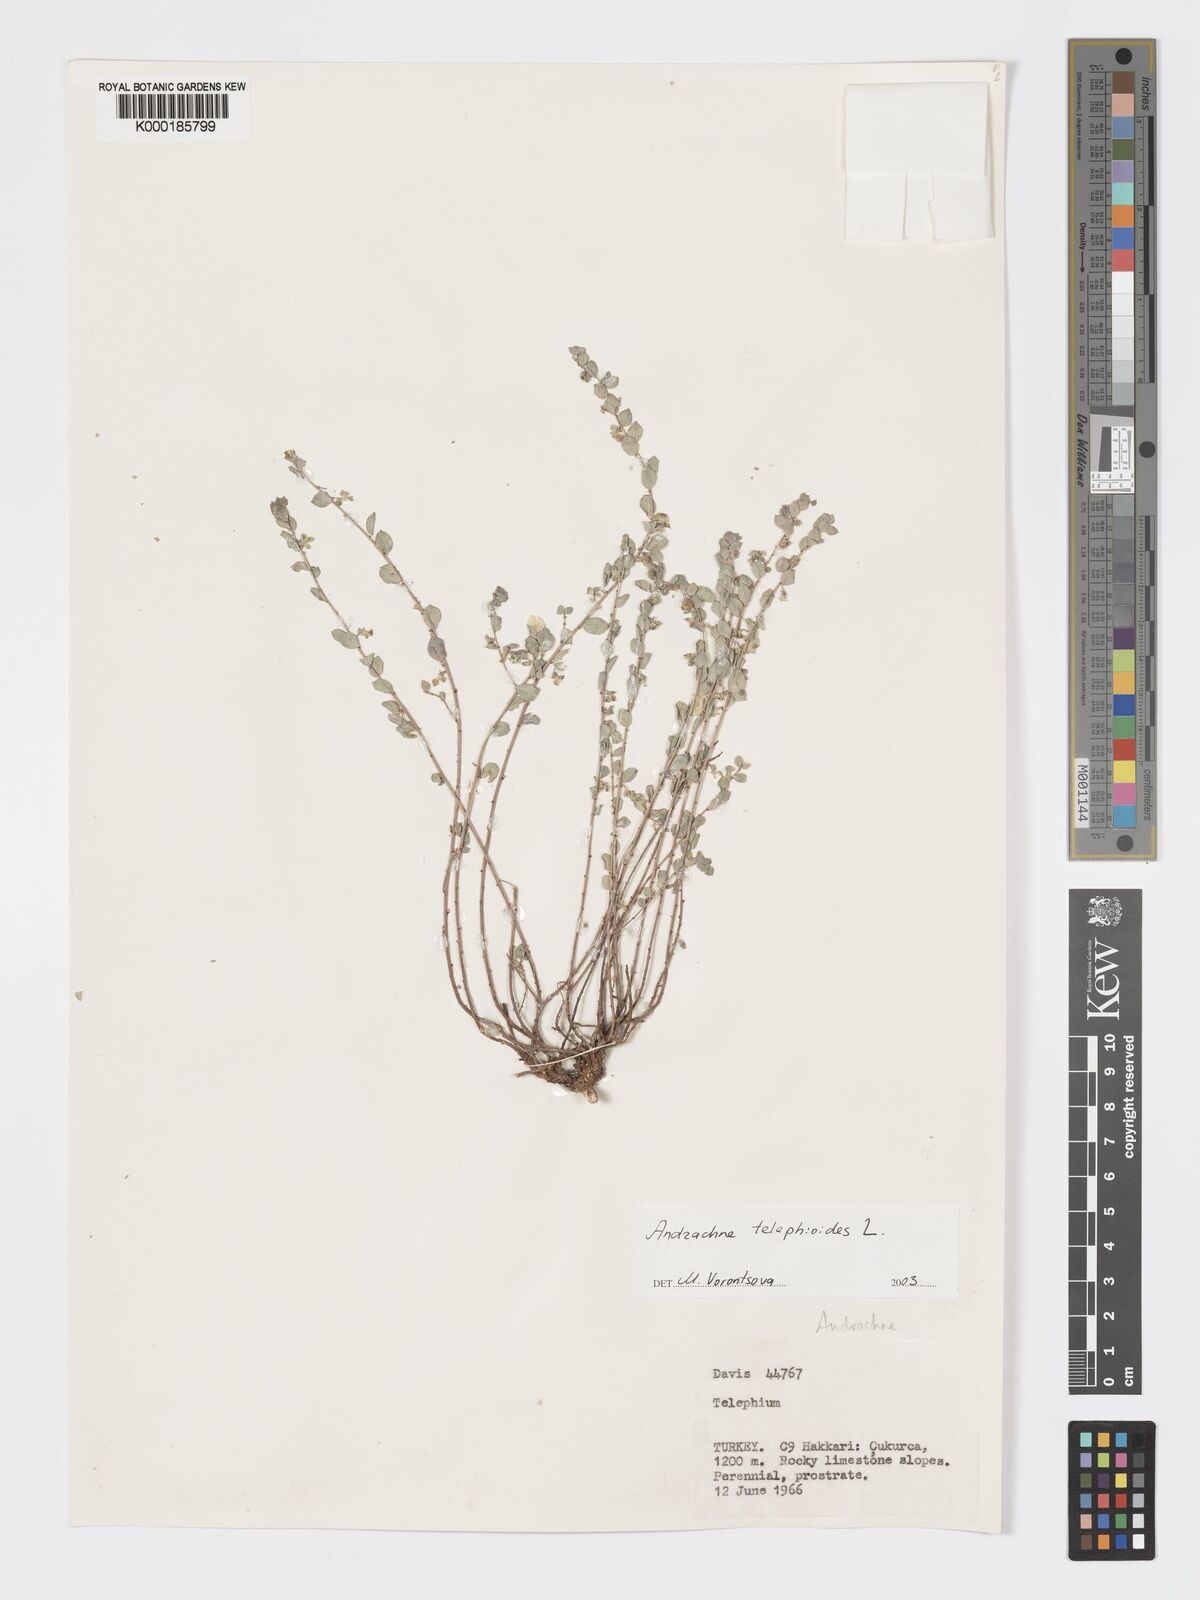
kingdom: Plantae
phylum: Tracheophyta
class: Magnoliopsida
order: Malpighiales
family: Phyllanthaceae
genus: Andrachne
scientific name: Andrachne telephioides
